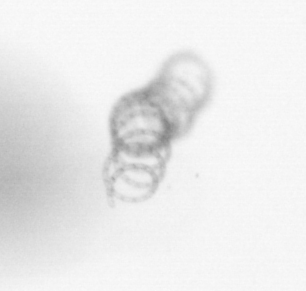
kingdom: Chromista
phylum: Ochrophyta
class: Bacillariophyceae
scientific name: Bacillariophyceae
